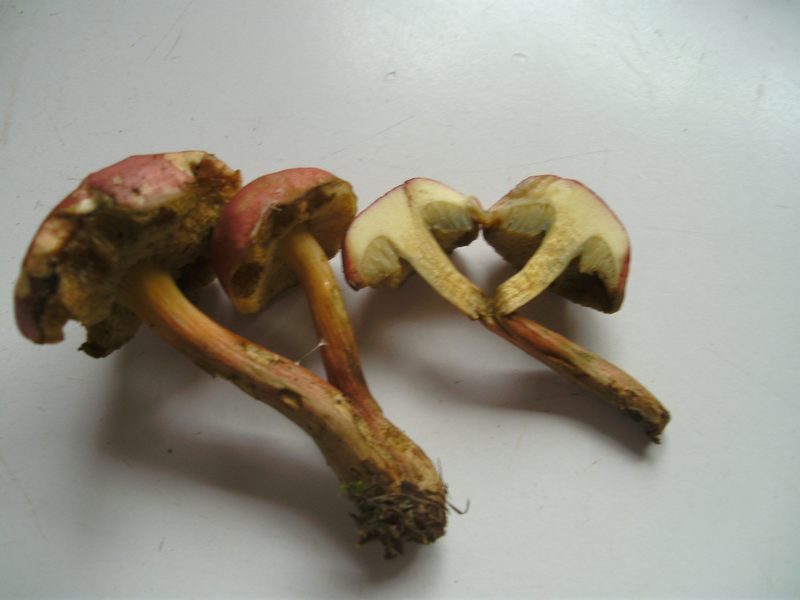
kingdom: Fungi
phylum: Basidiomycota
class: Agaricomycetes
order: Boletales
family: Boletaceae
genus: Hortiboletus
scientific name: Hortiboletus rubellus
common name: blodrød rørhat
